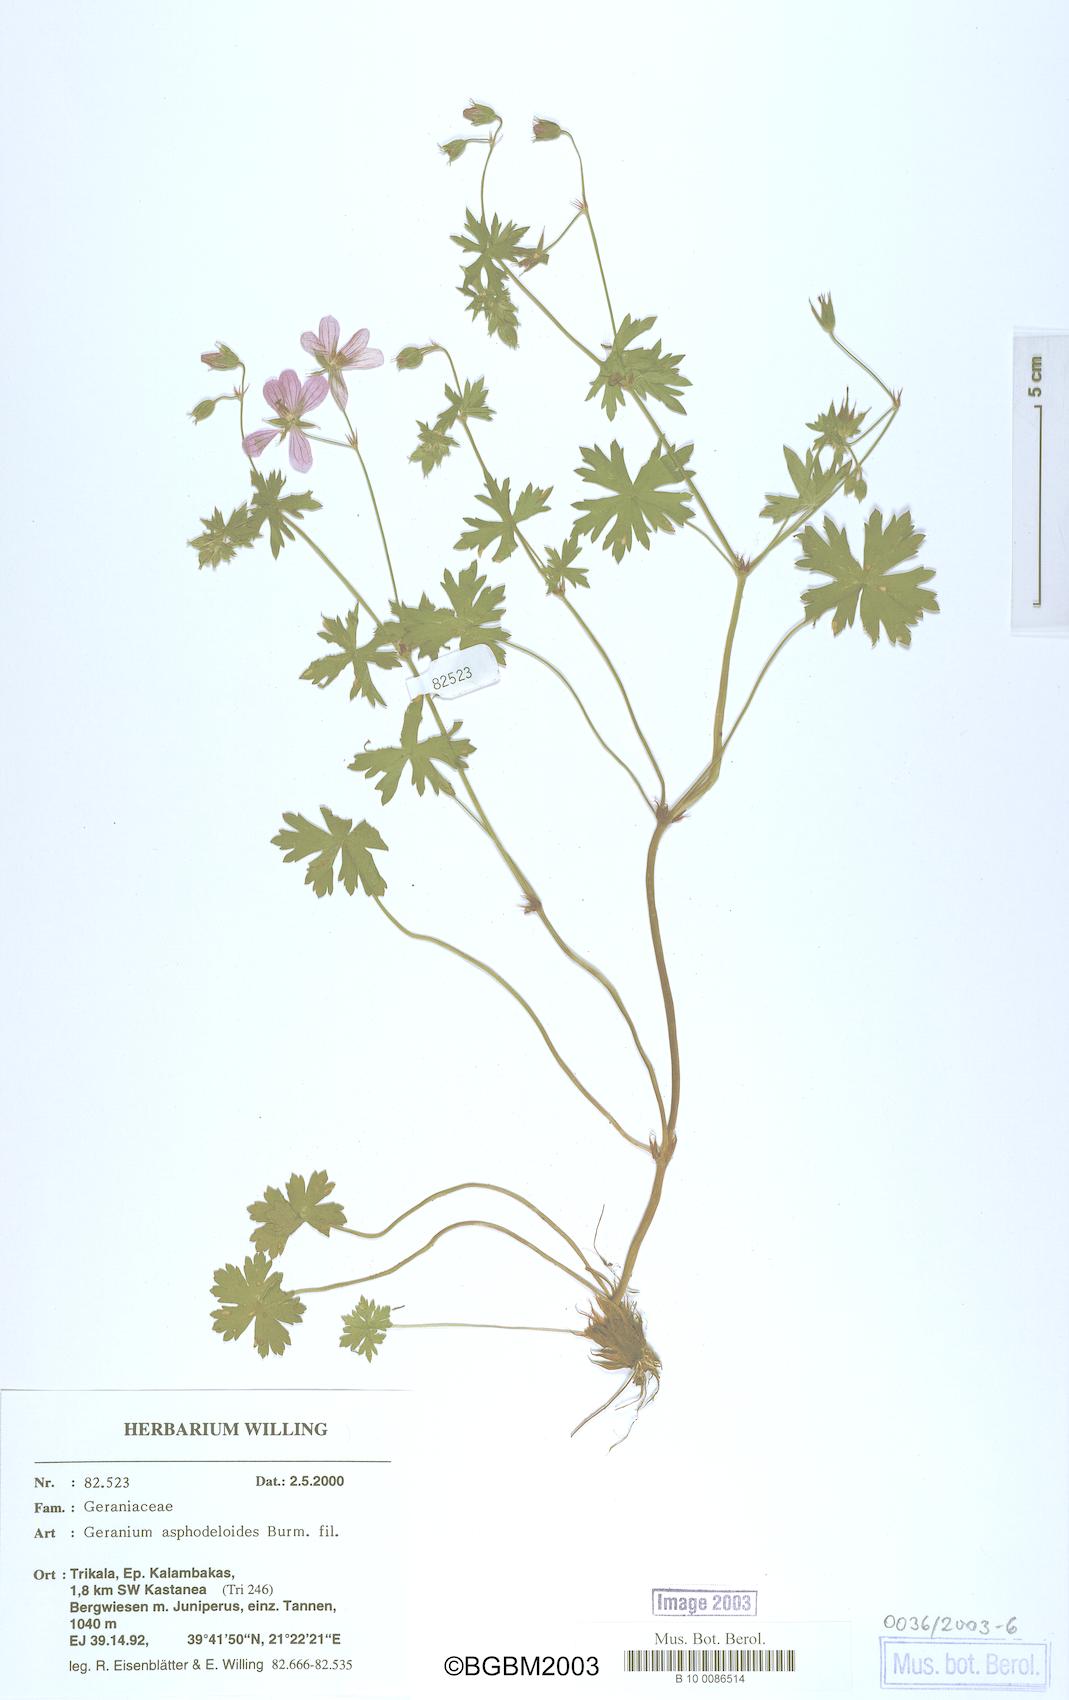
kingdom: Plantae
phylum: Tracheophyta
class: Magnoliopsida
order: Geraniales
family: Geraniaceae
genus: Geranium
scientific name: Geranium asphodeloides
